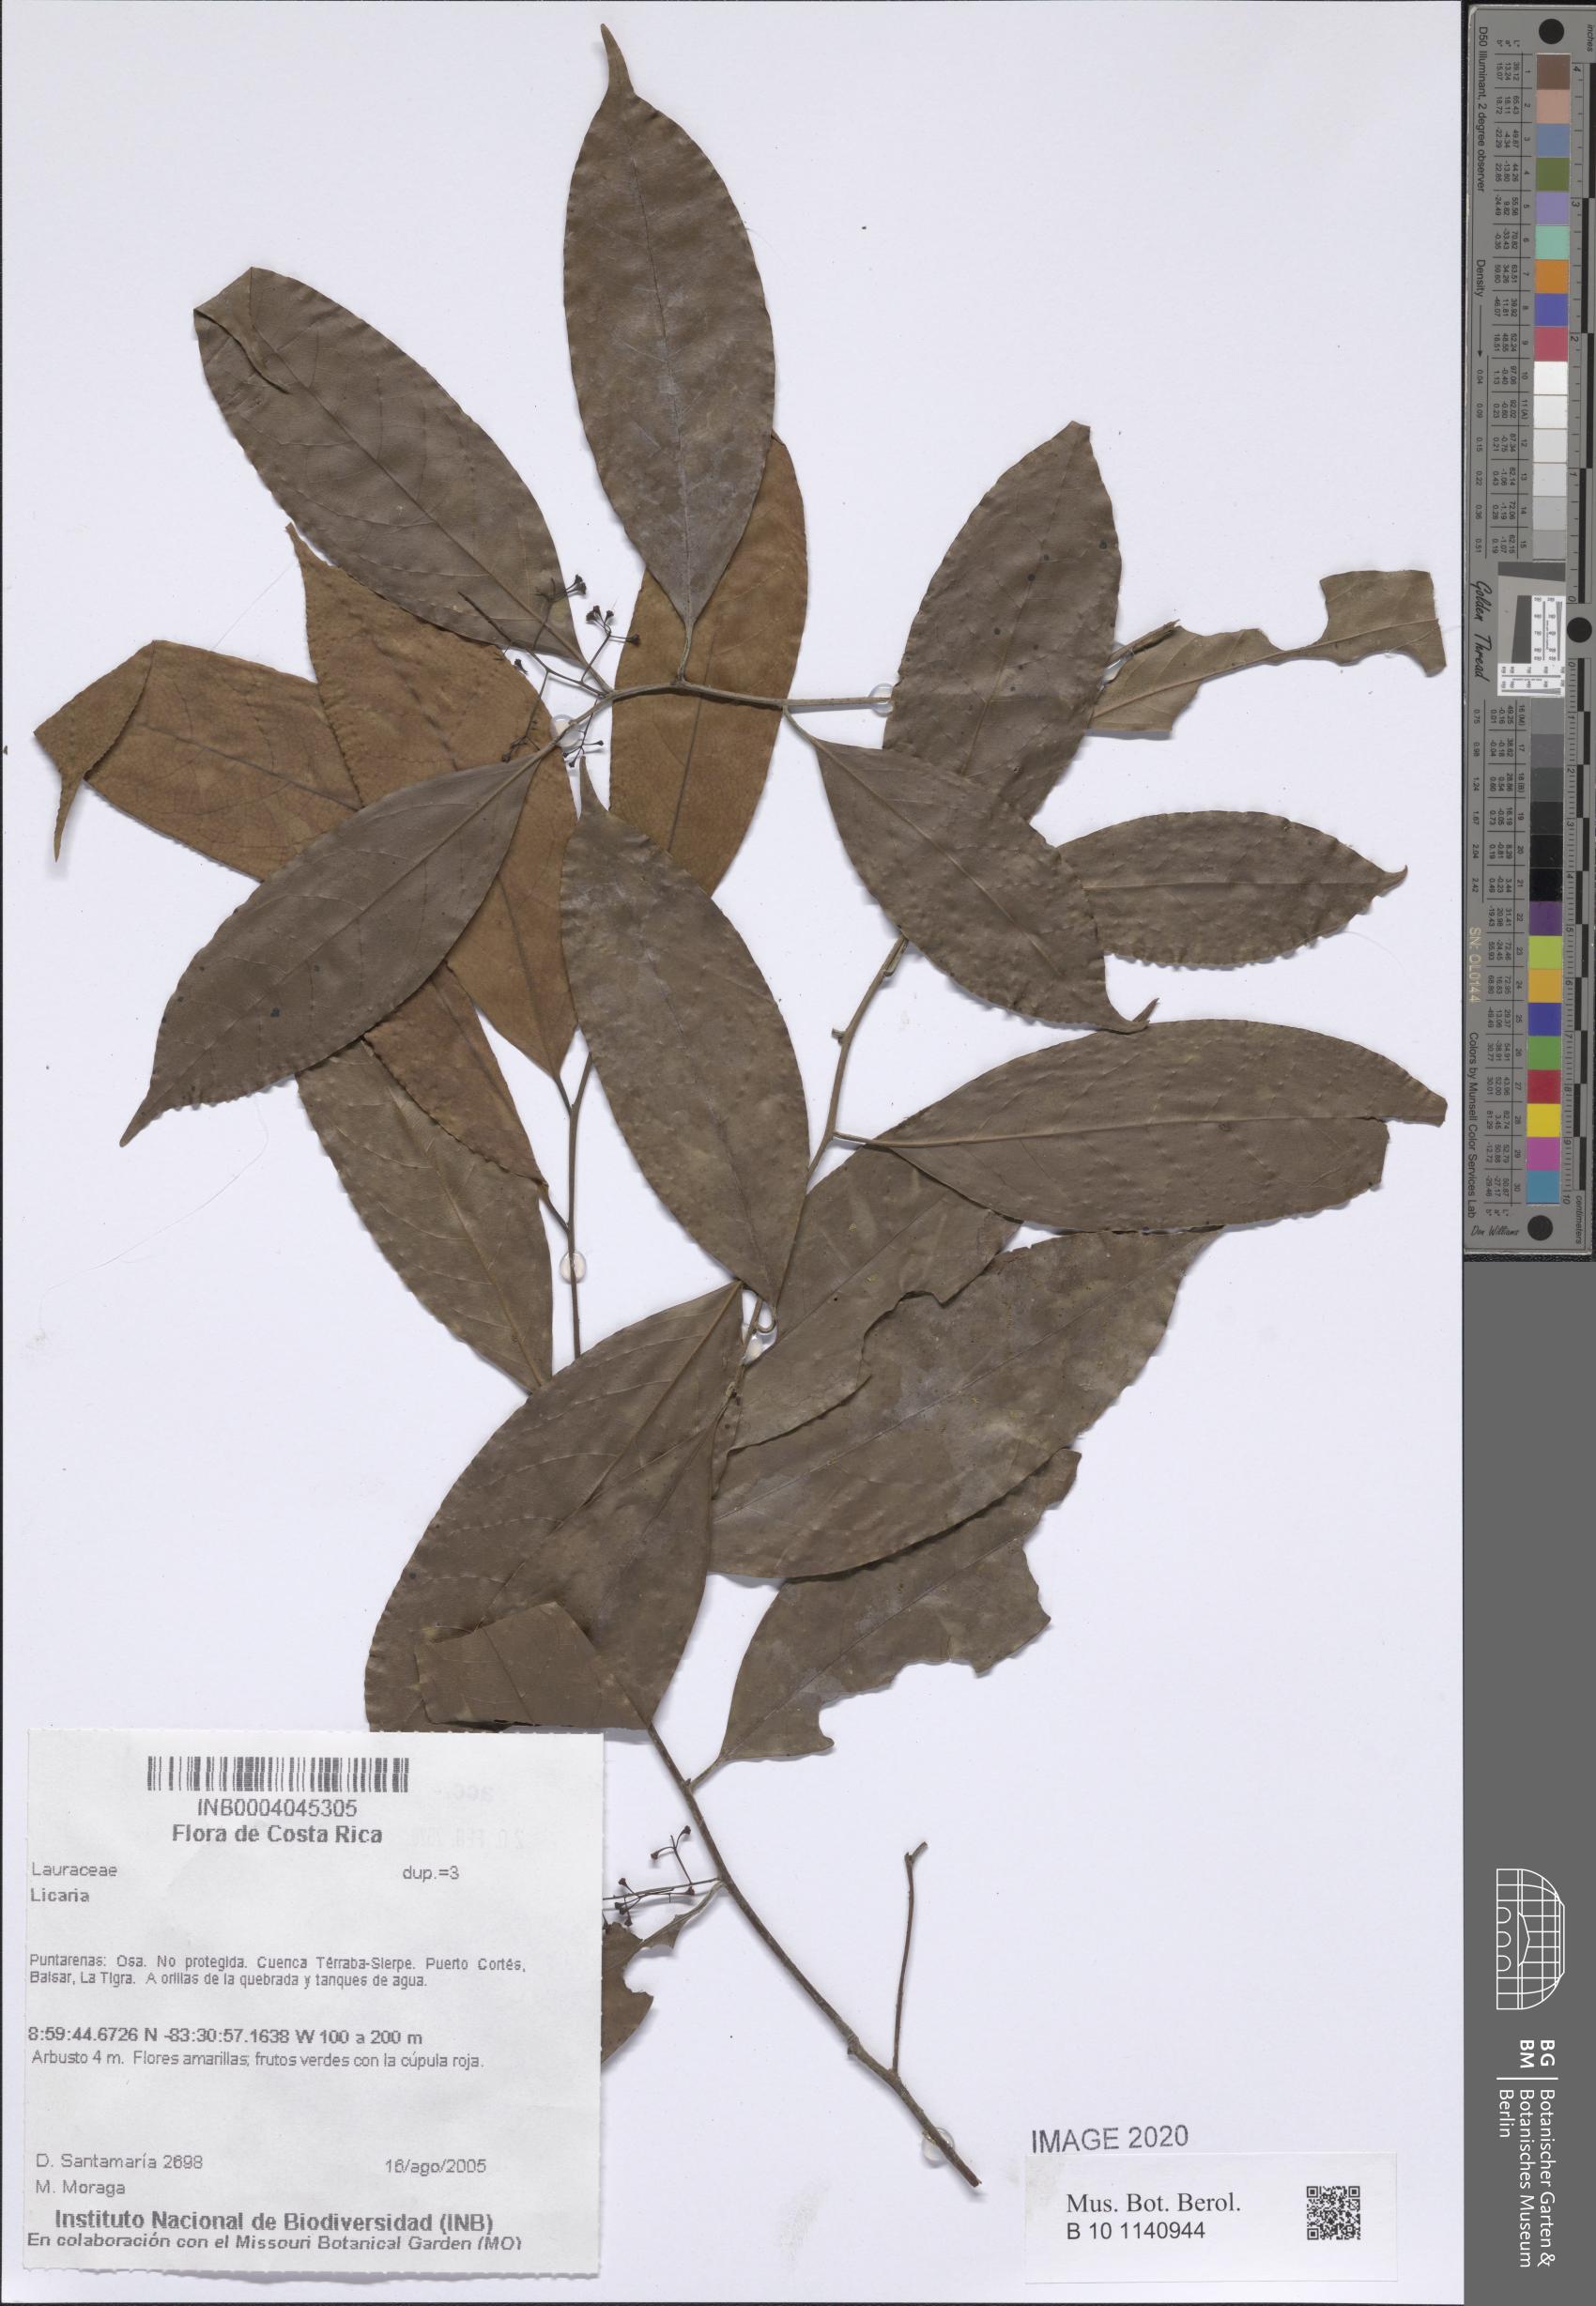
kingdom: Plantae
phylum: Tracheophyta
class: Magnoliopsida
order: Laurales
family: Lauraceae
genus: Licaria
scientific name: Licaria
